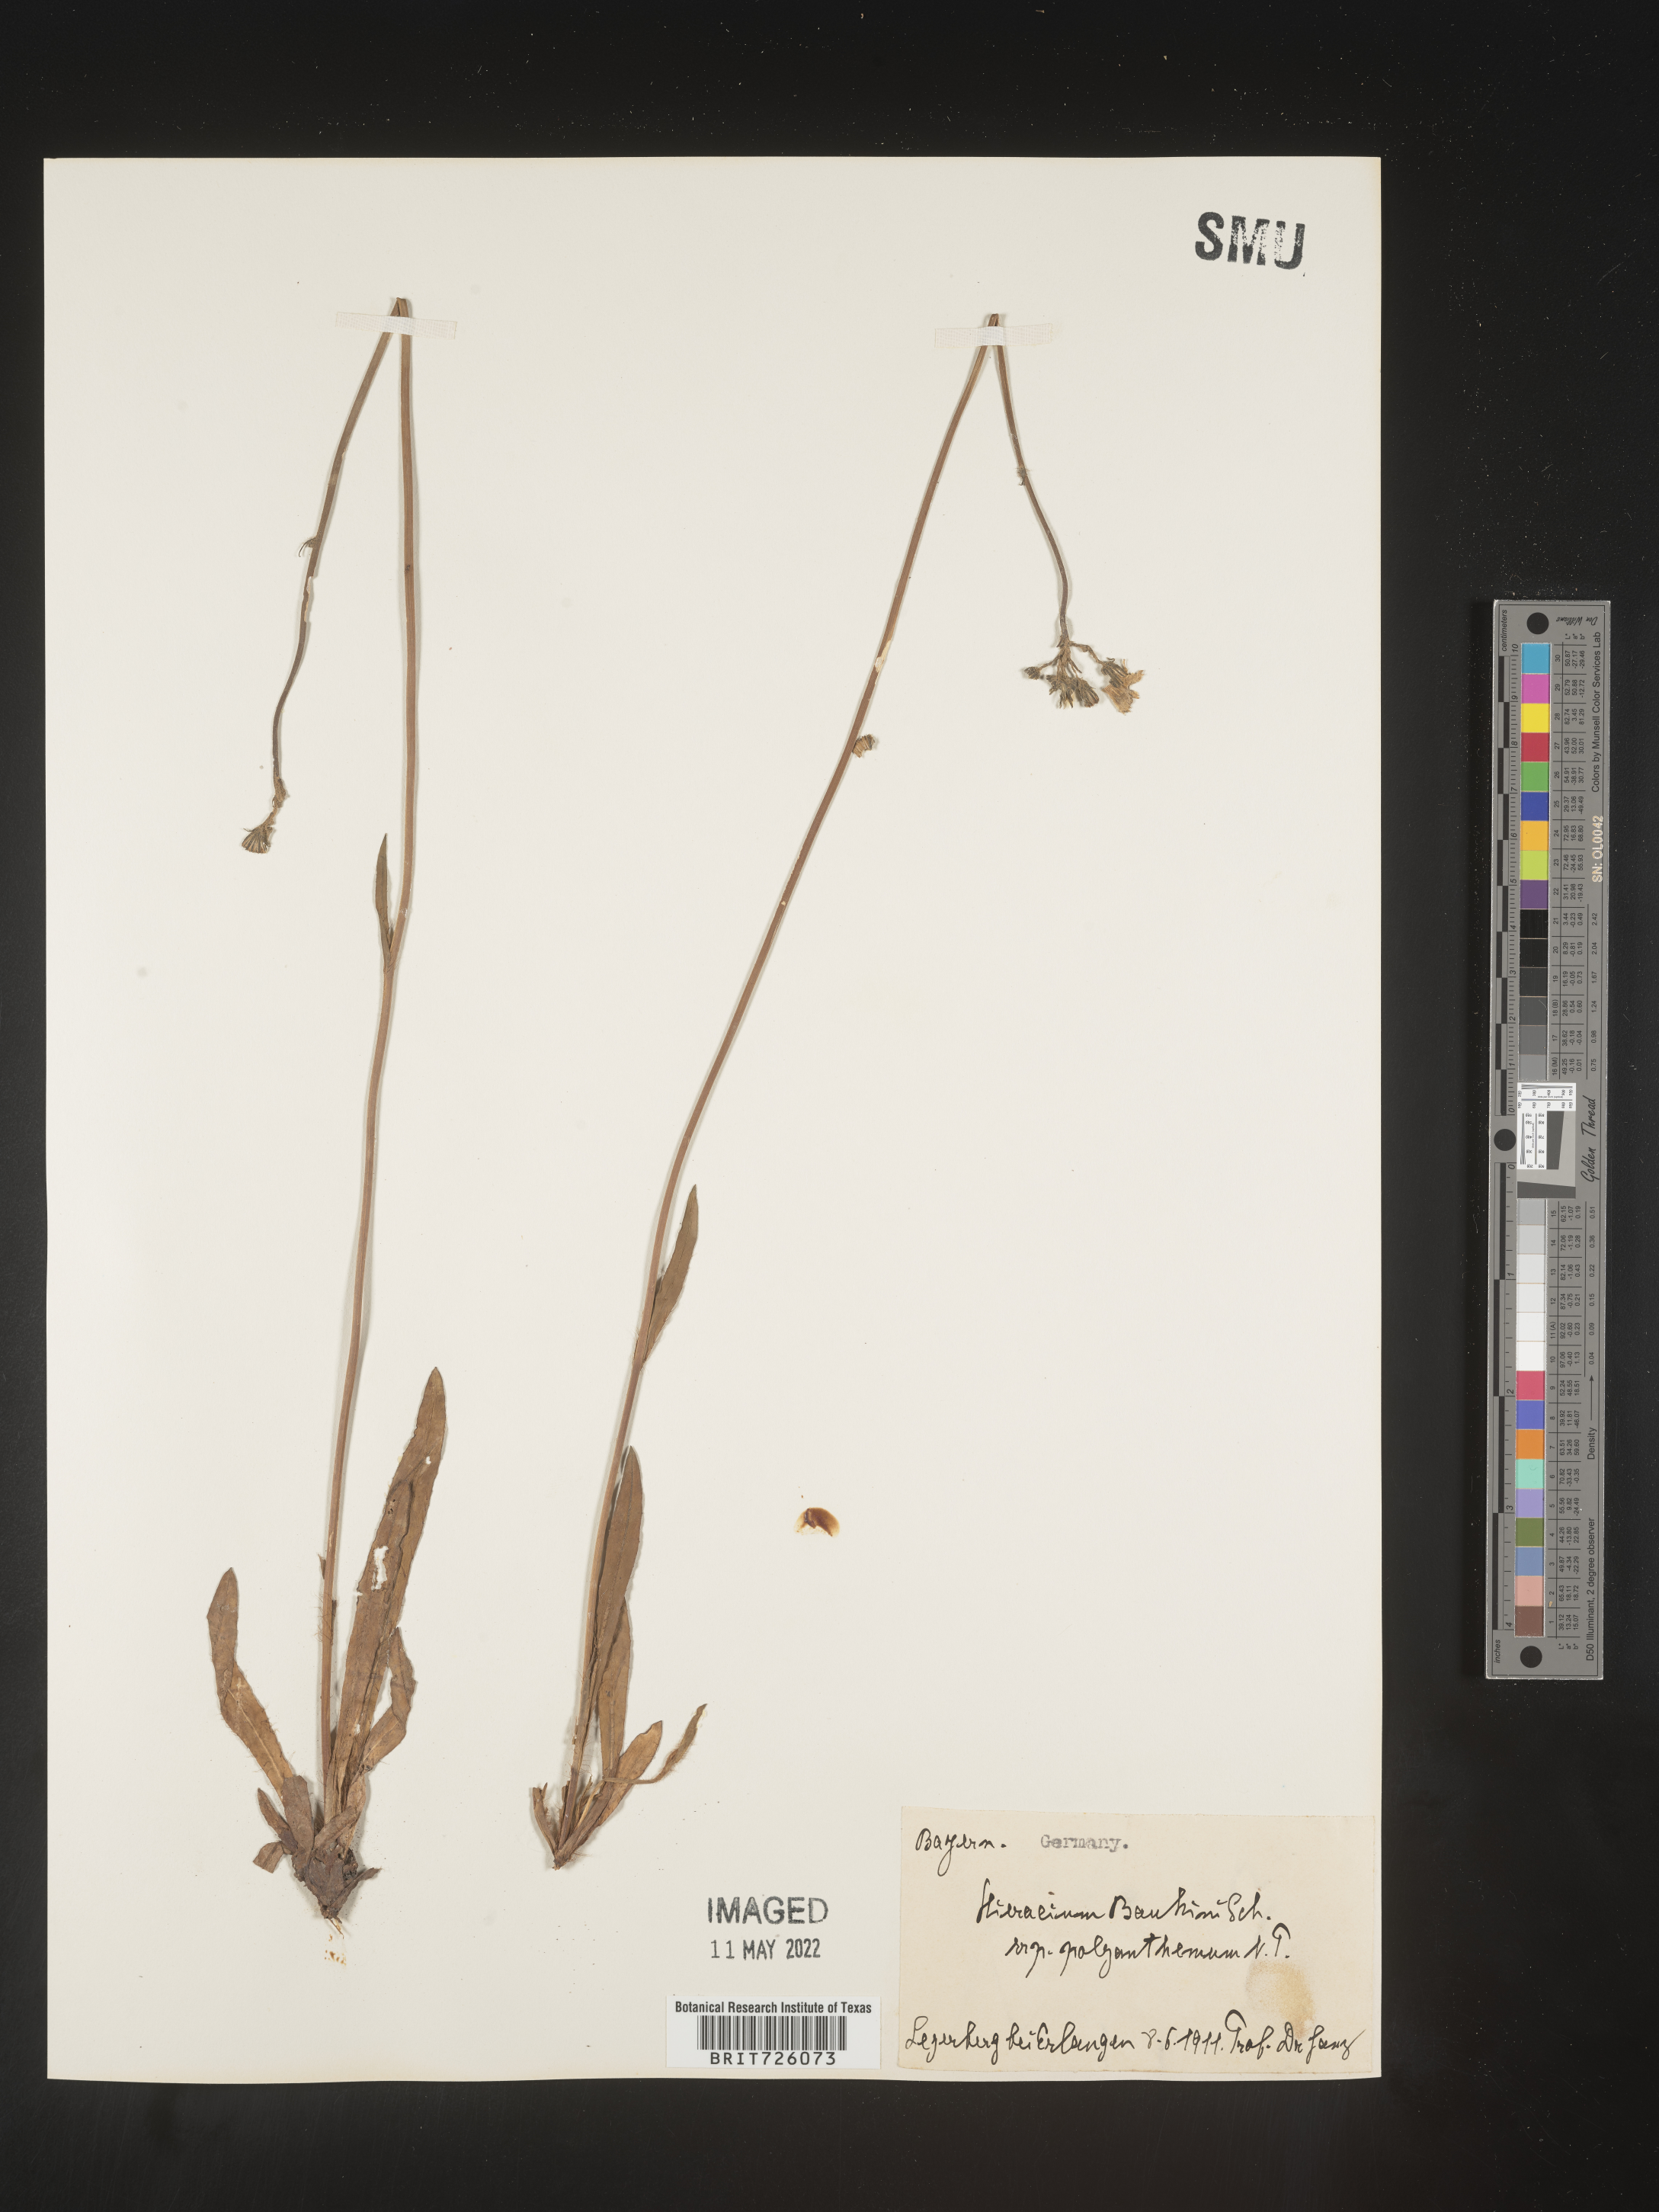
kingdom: Plantae
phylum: Tracheophyta
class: Magnoliopsida
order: Asterales
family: Asteraceae
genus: Hieracium
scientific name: Hieracium
